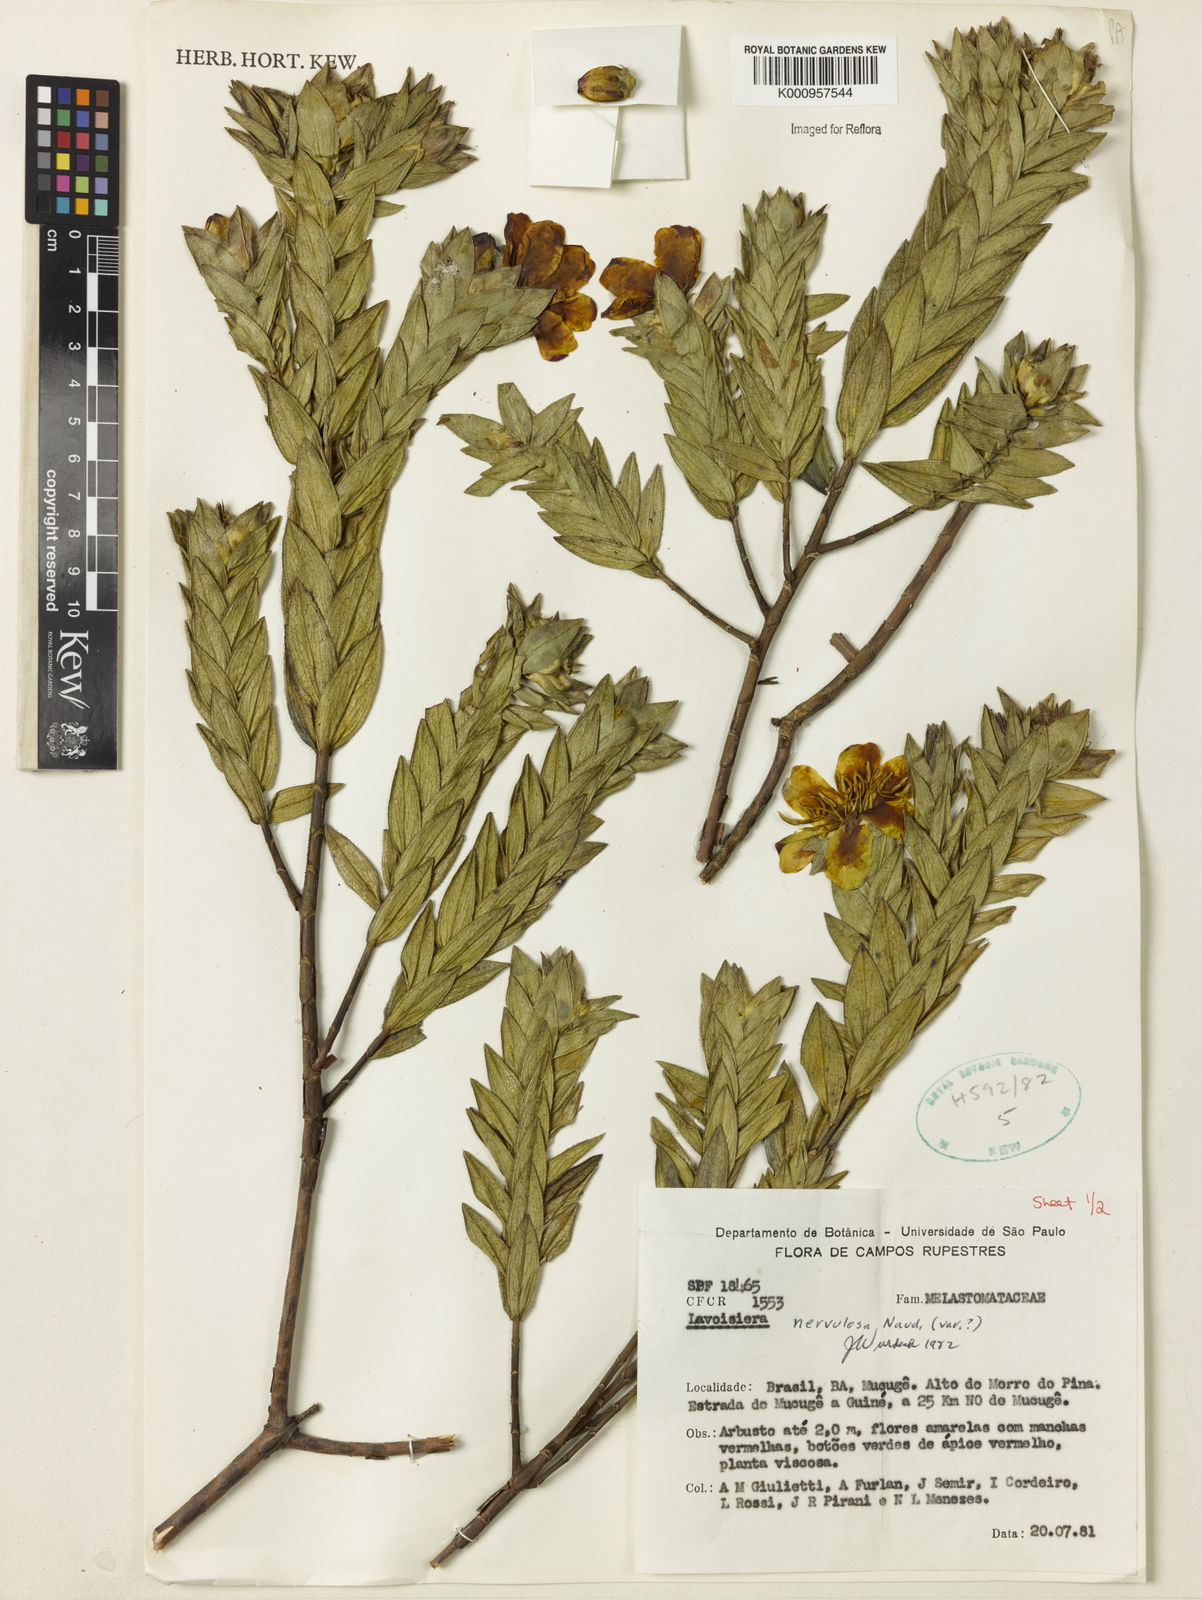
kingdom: Plantae
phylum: Tracheophyta
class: Magnoliopsida
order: Myrtales
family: Melastomataceae
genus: Microlicia
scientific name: Microlicia nervulosa
